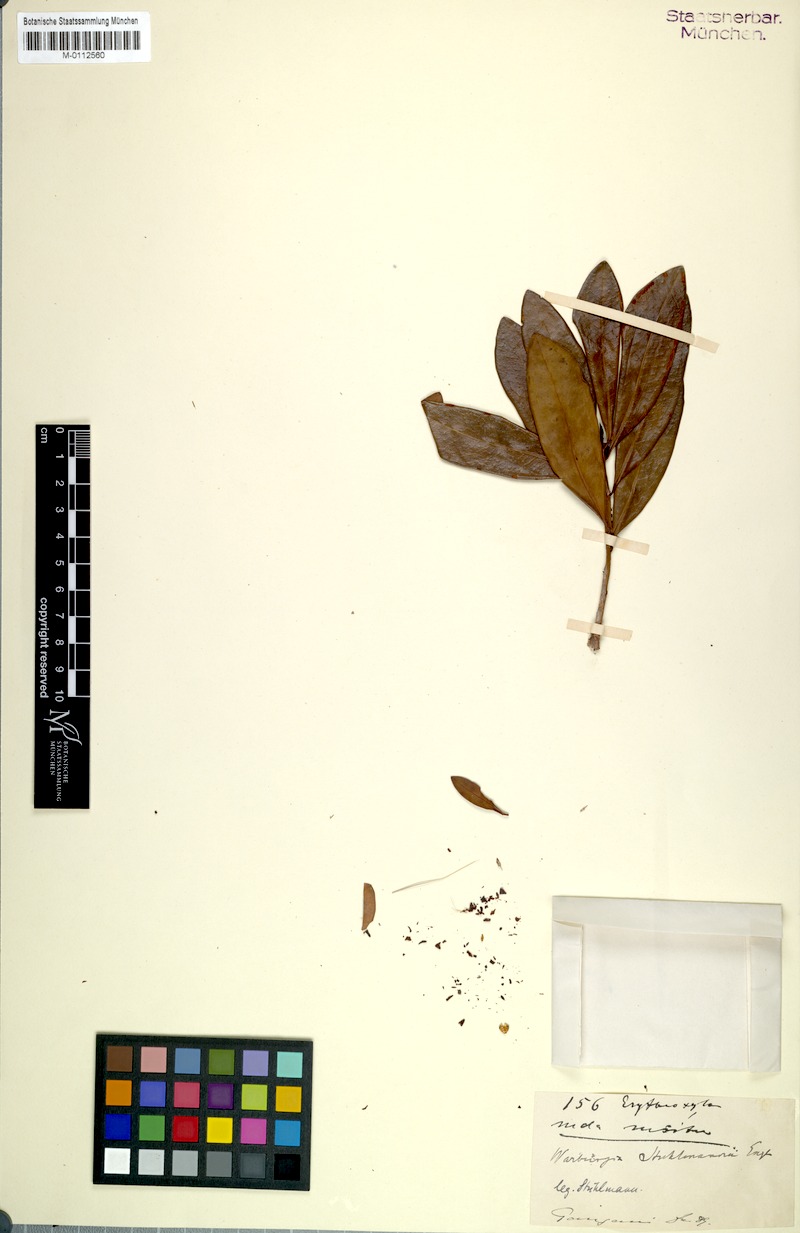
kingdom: Plantae
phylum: Tracheophyta
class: Magnoliopsida
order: Canellales
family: Canellaceae
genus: Warburgia
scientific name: Warburgia stuhlmannii
